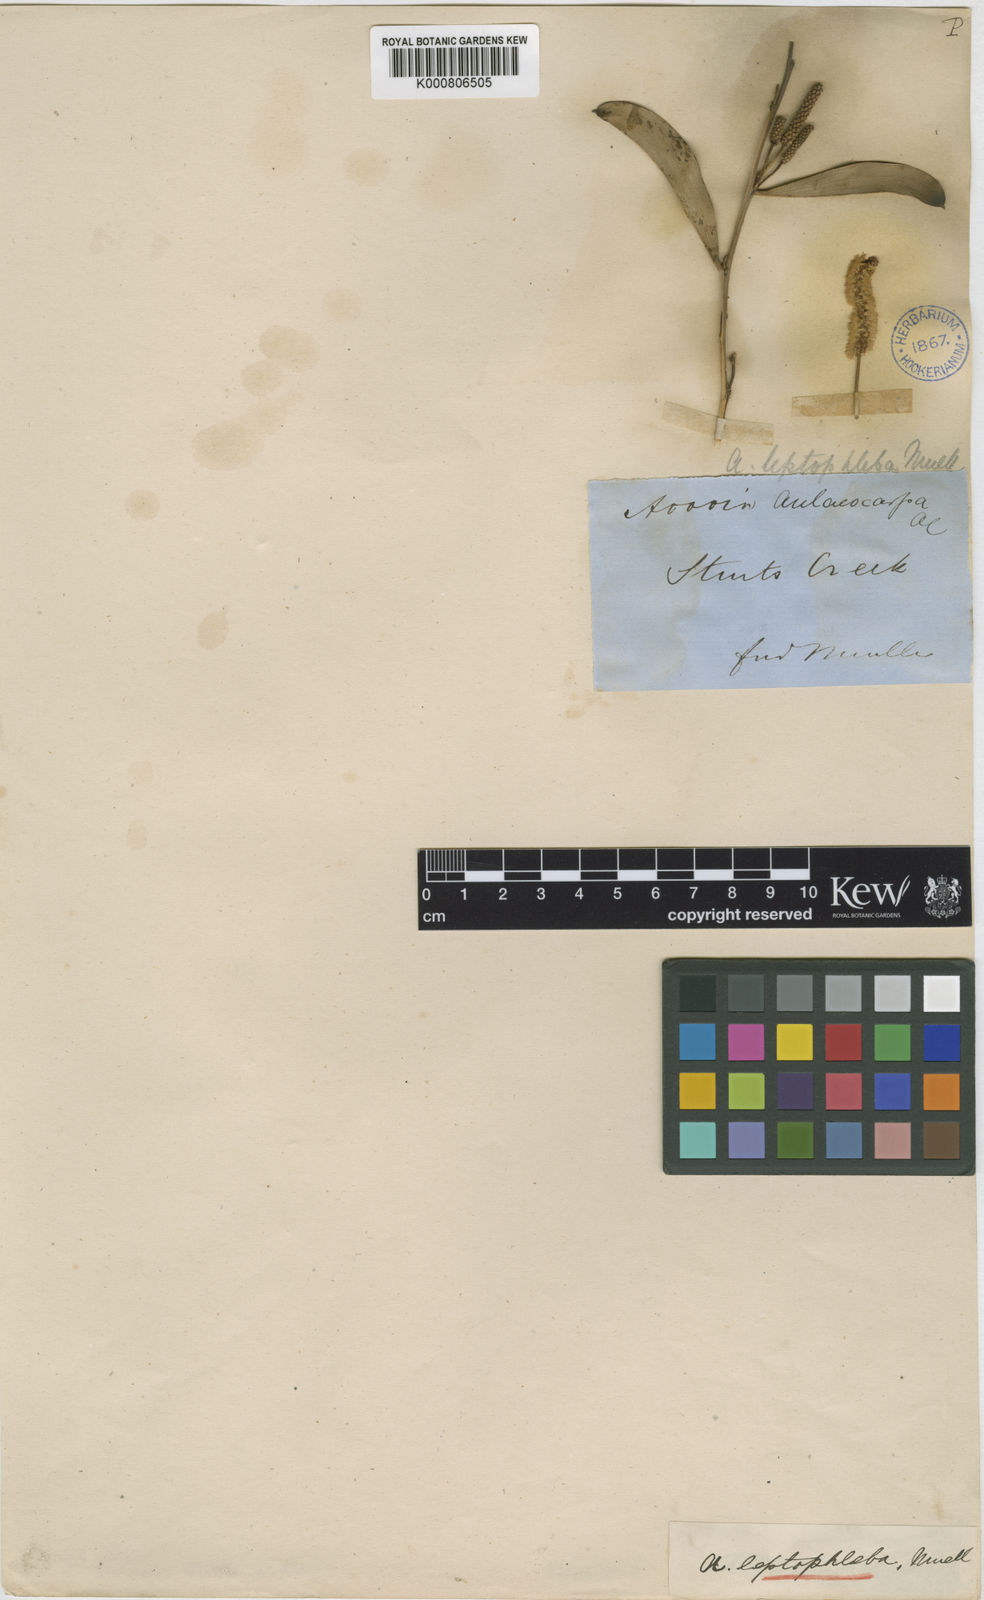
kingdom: Plantae
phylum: Tracheophyta
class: Magnoliopsida
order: Fabales
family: Fabaceae
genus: Acacia
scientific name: Acacia leptophleba
